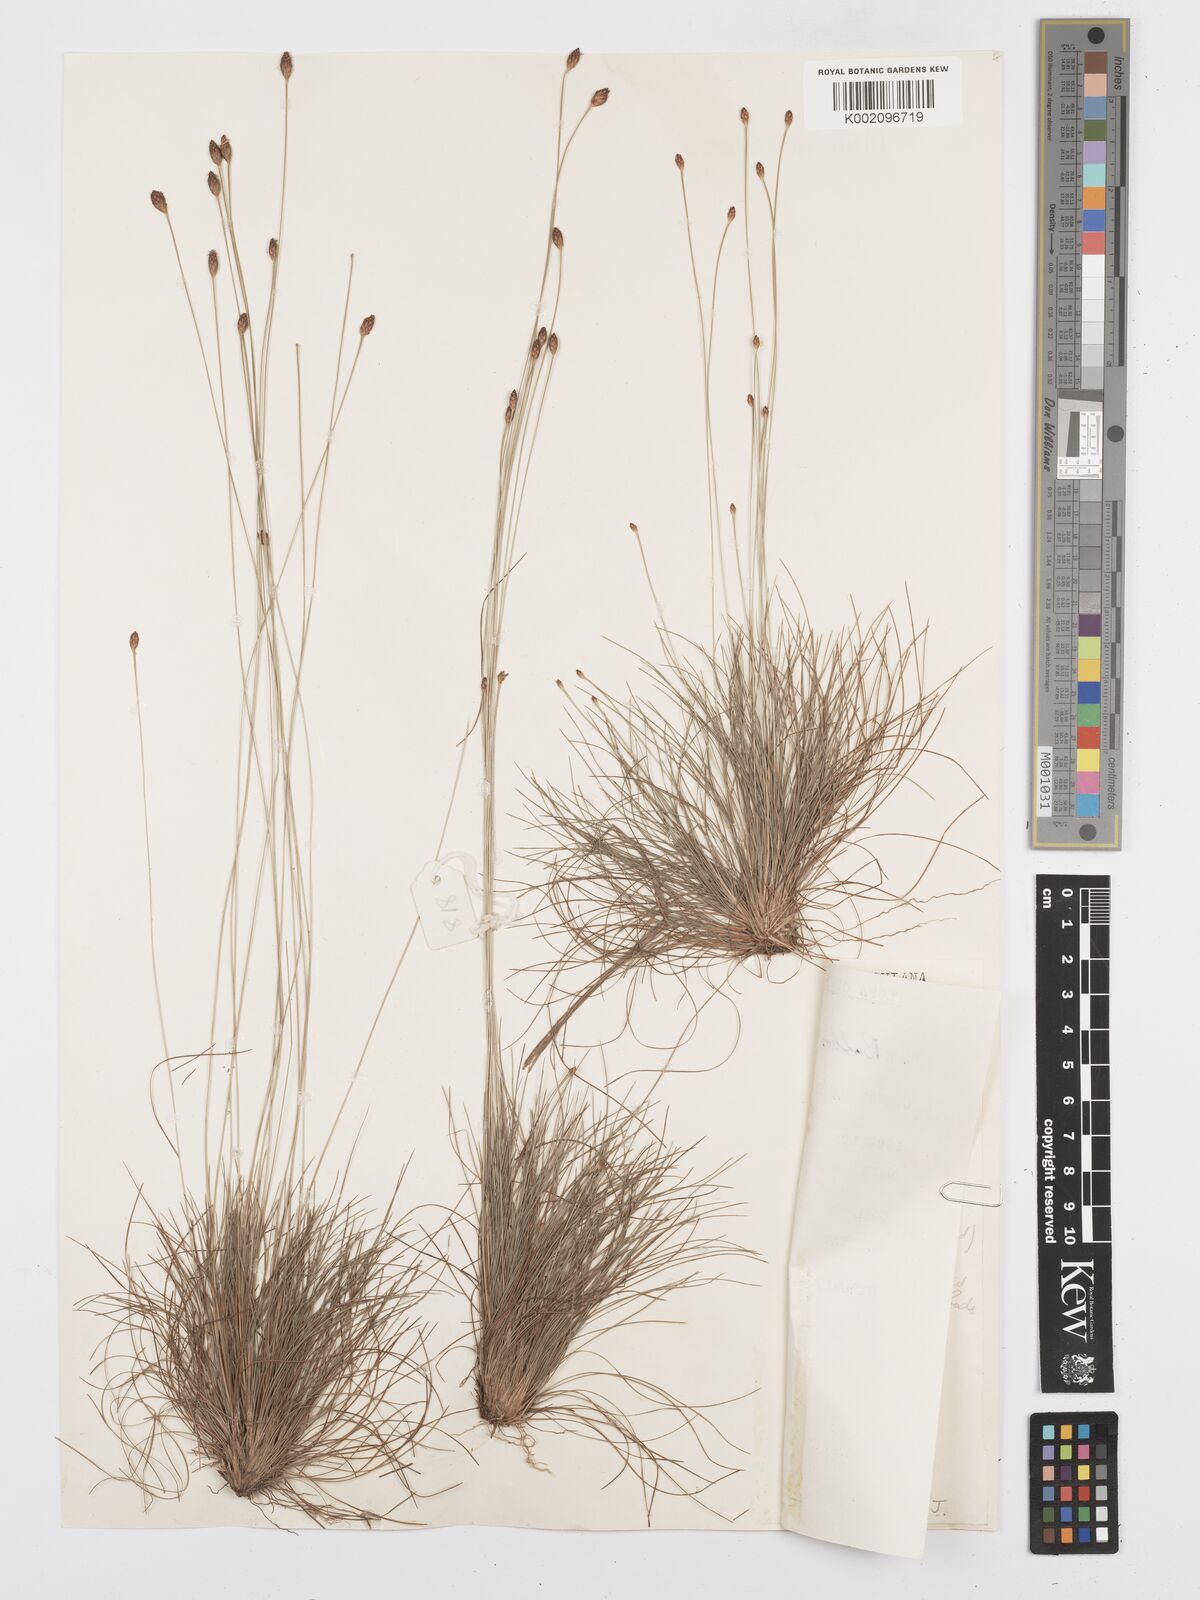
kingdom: Plantae
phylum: Tracheophyta
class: Liliopsida
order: Poales
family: Cyperaceae
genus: Bulbostylis
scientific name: Bulbostylis conifera
